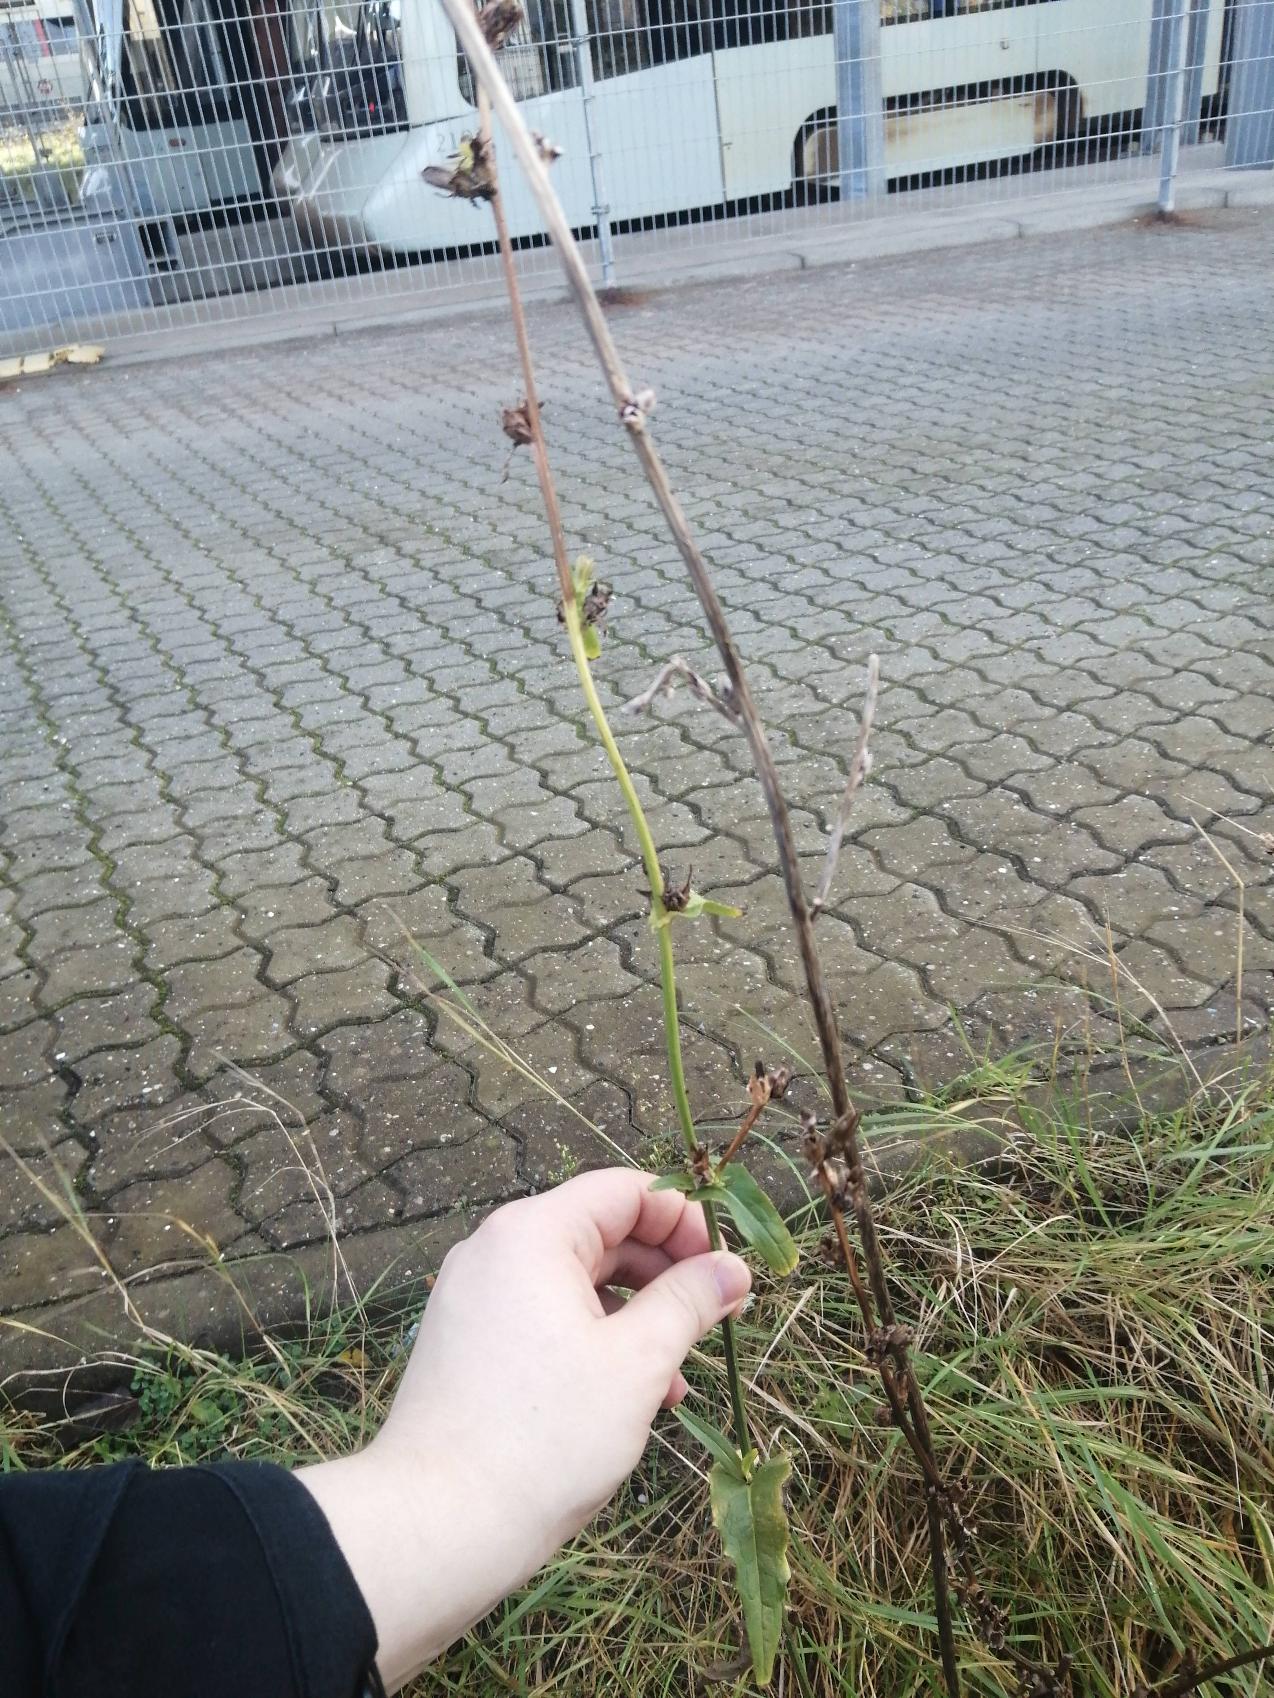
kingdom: Plantae
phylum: Tracheophyta
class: Magnoliopsida
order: Asterales
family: Asteraceae
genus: Cichorium
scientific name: Cichorium intybus
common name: Cikorie
